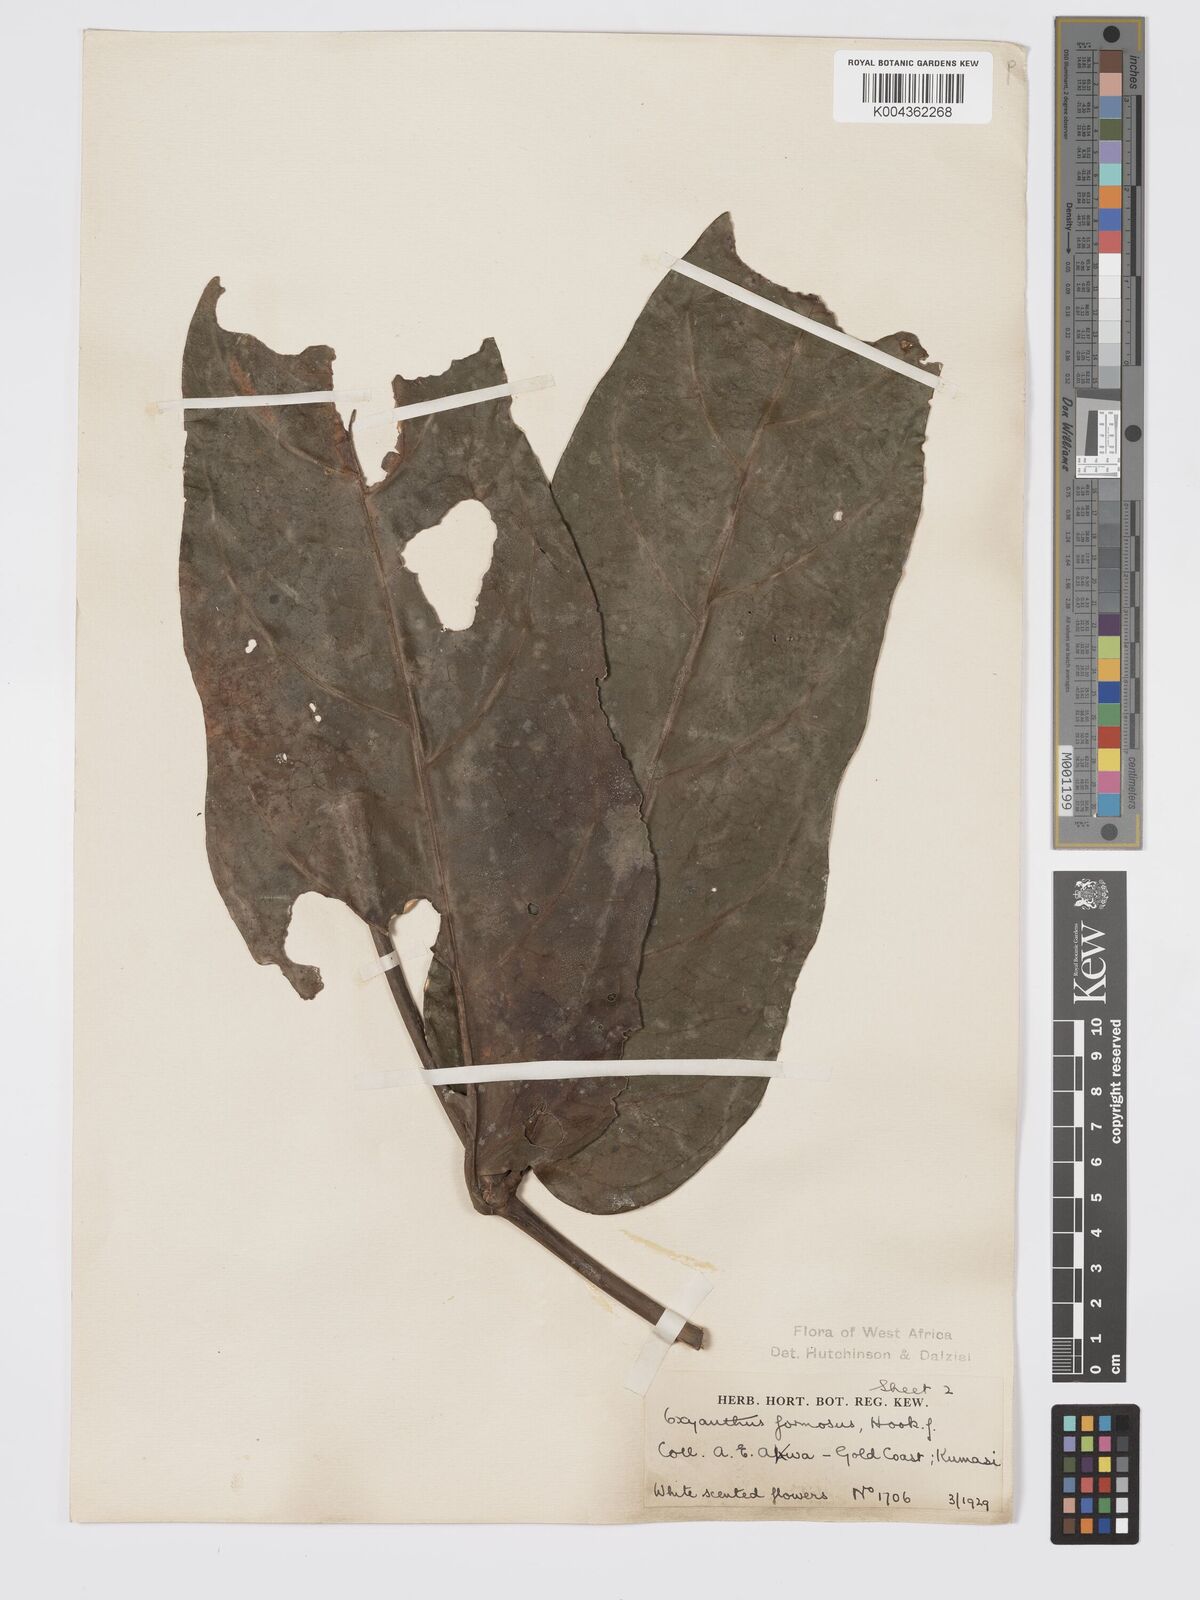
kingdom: Plantae
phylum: Tracheophyta
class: Magnoliopsida
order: Gentianales
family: Rubiaceae
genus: Oxyanthus
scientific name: Oxyanthus formosus
